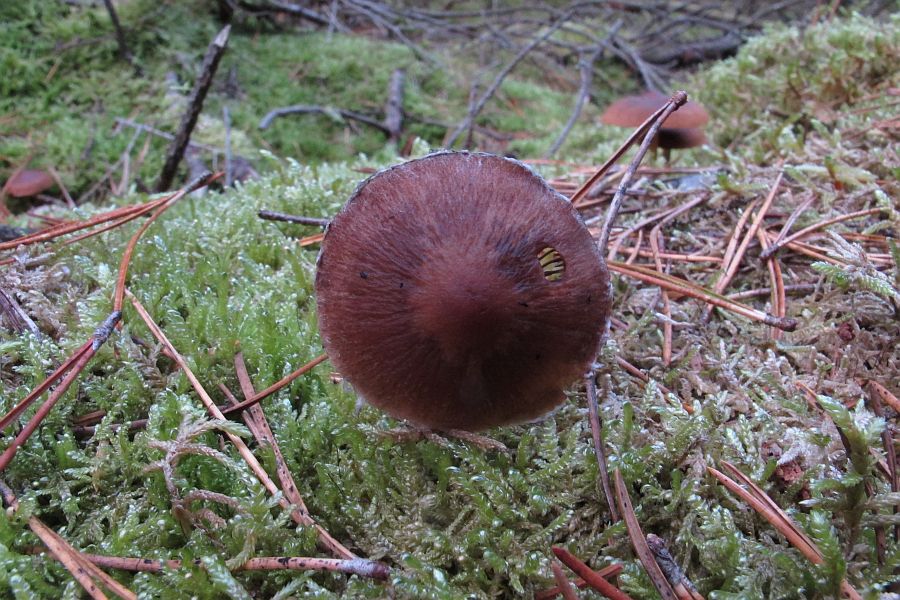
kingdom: Fungi
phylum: Basidiomycota
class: Agaricomycetes
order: Agaricales
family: Psathyrellaceae
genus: Psathyrella
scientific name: Psathyrella senex
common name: brunøjet mørkhat
